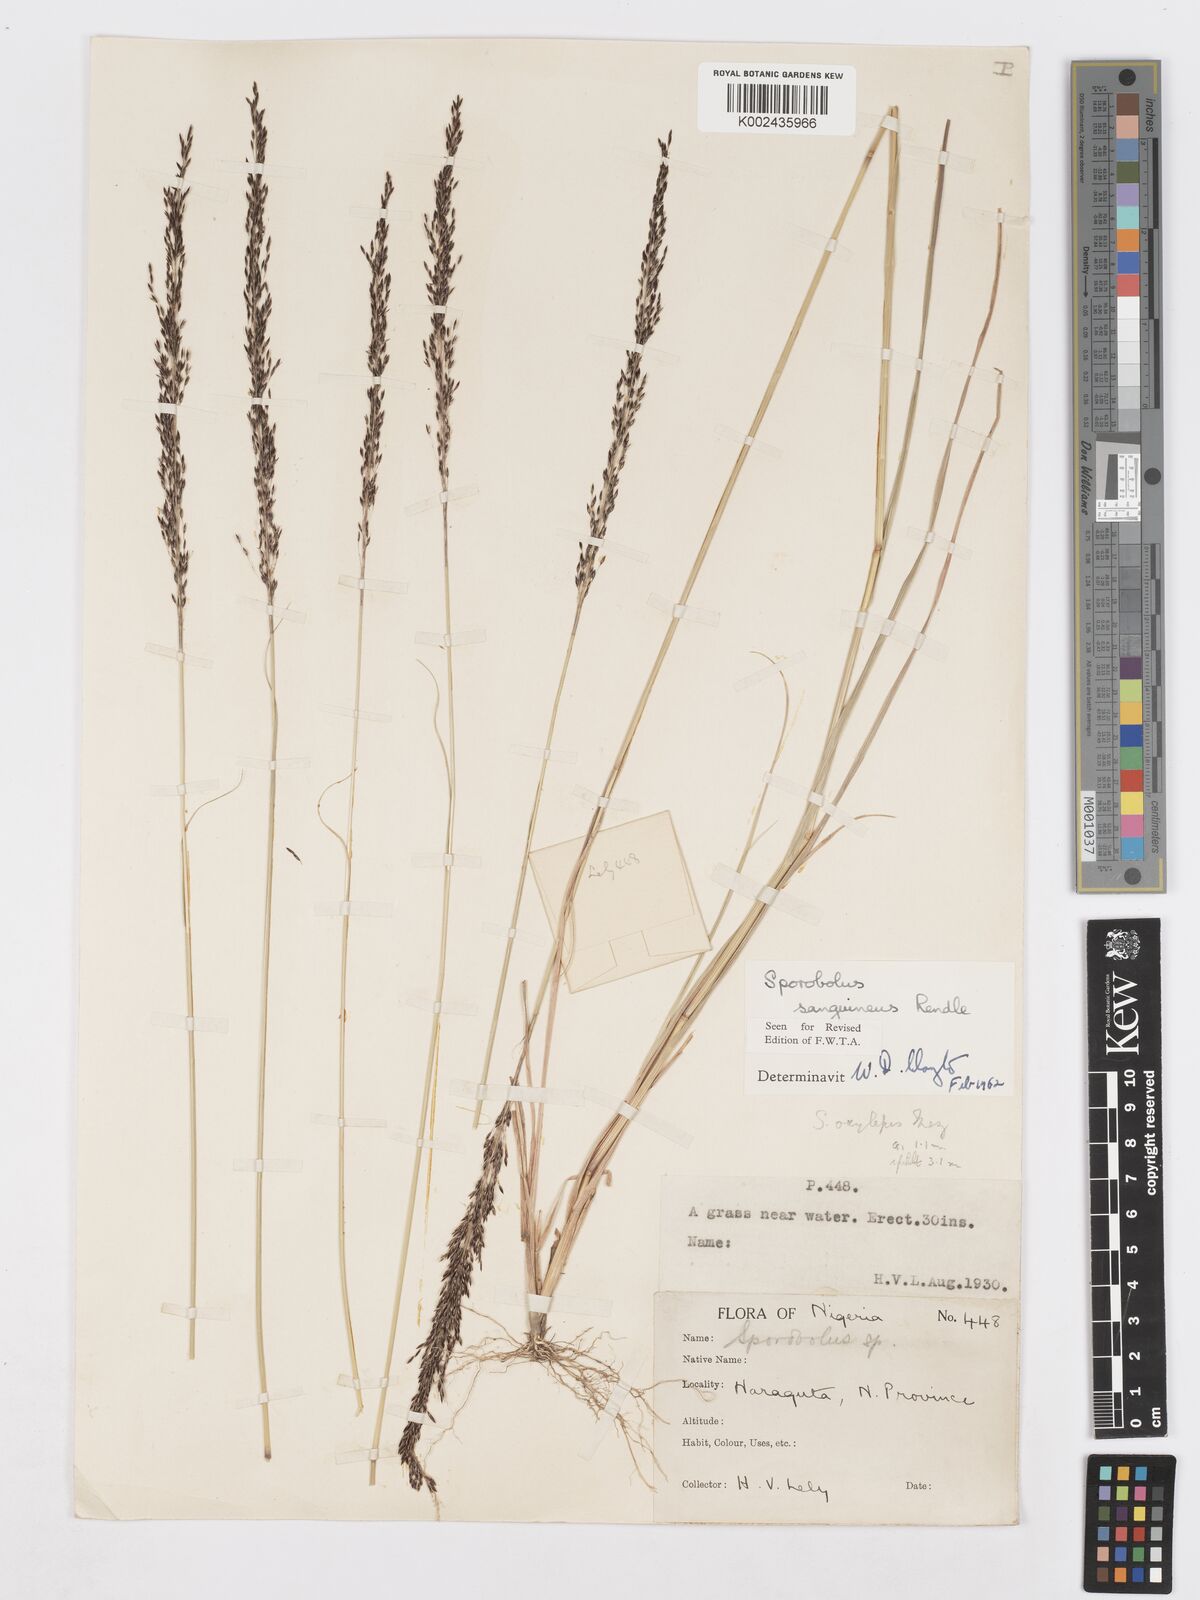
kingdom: Plantae
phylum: Tracheophyta
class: Liliopsida
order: Poales
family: Poaceae
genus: Sporobolus
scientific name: Sporobolus sanguineus
